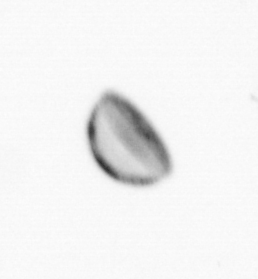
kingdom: Chromista
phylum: Ochrophyta
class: Bacillariophyceae
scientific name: Bacillariophyceae
